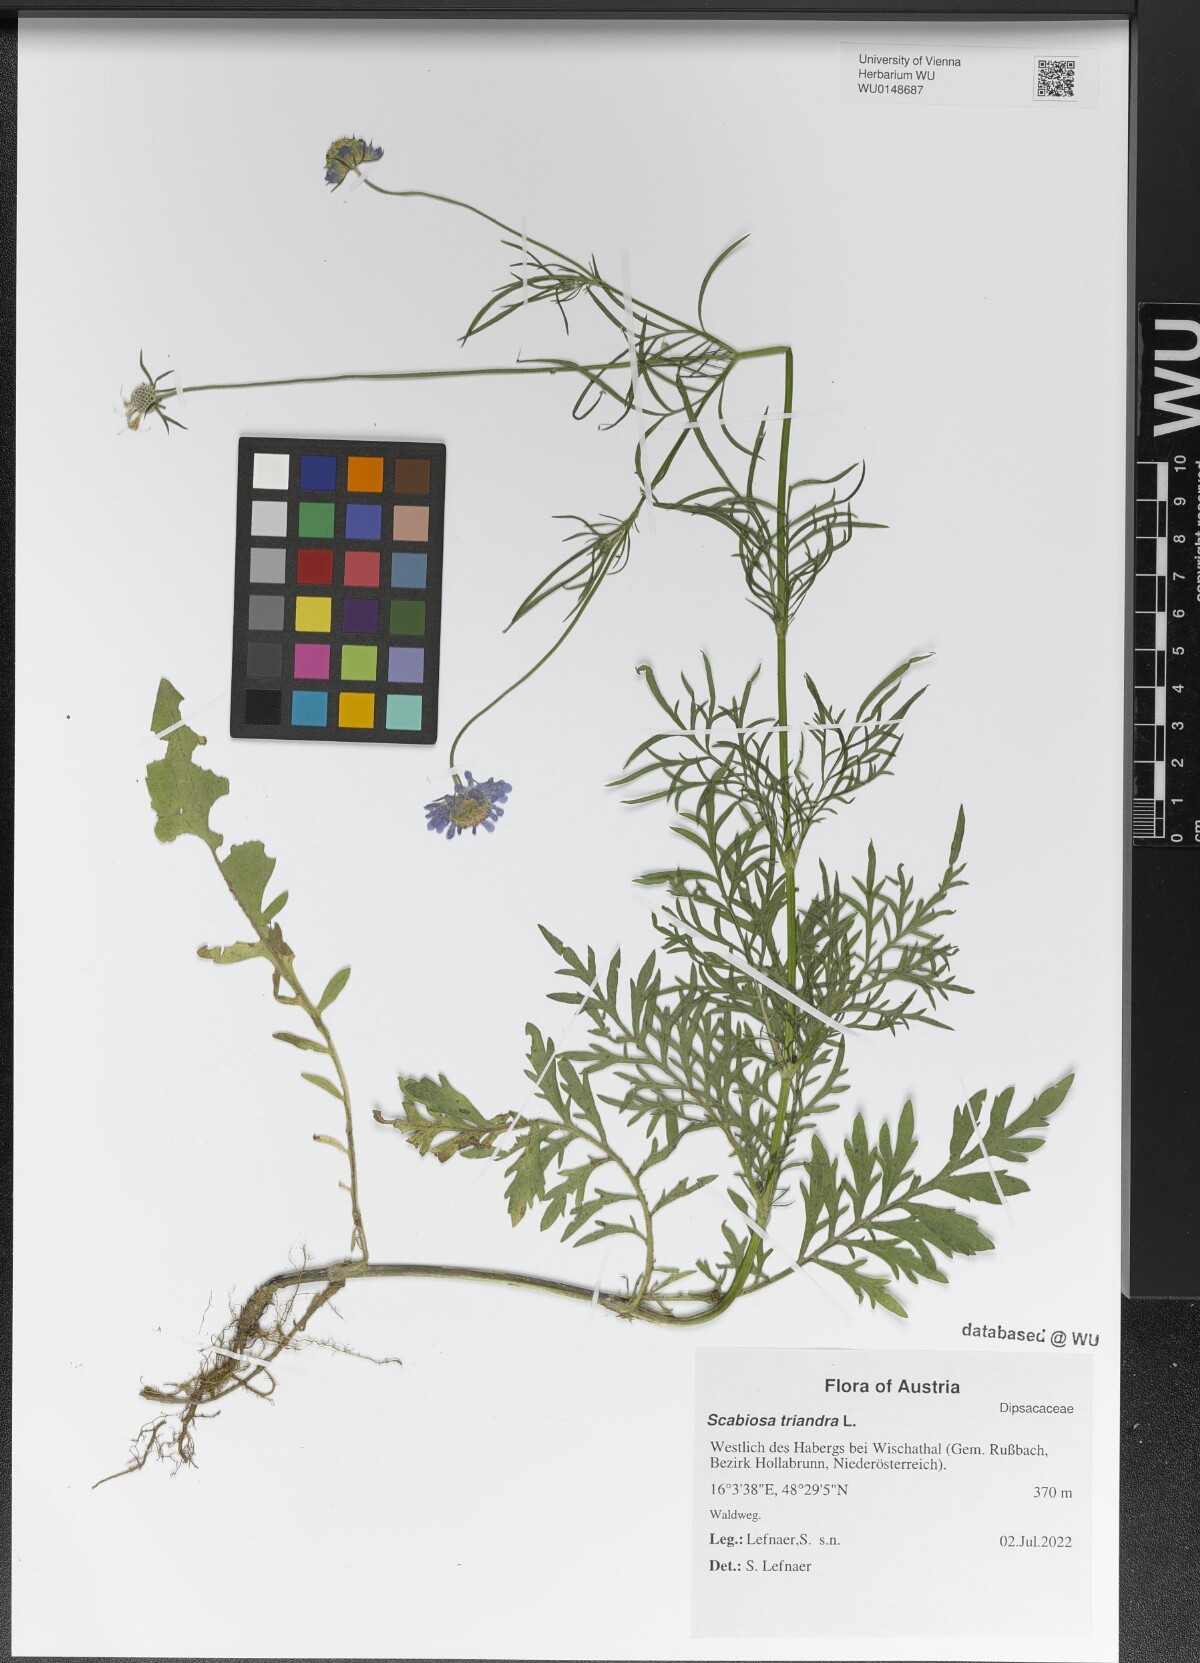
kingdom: Plantae
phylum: Tracheophyta
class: Magnoliopsida
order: Dipsacales
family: Caprifoliaceae
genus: Scabiosa
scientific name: Scabiosa triandra
